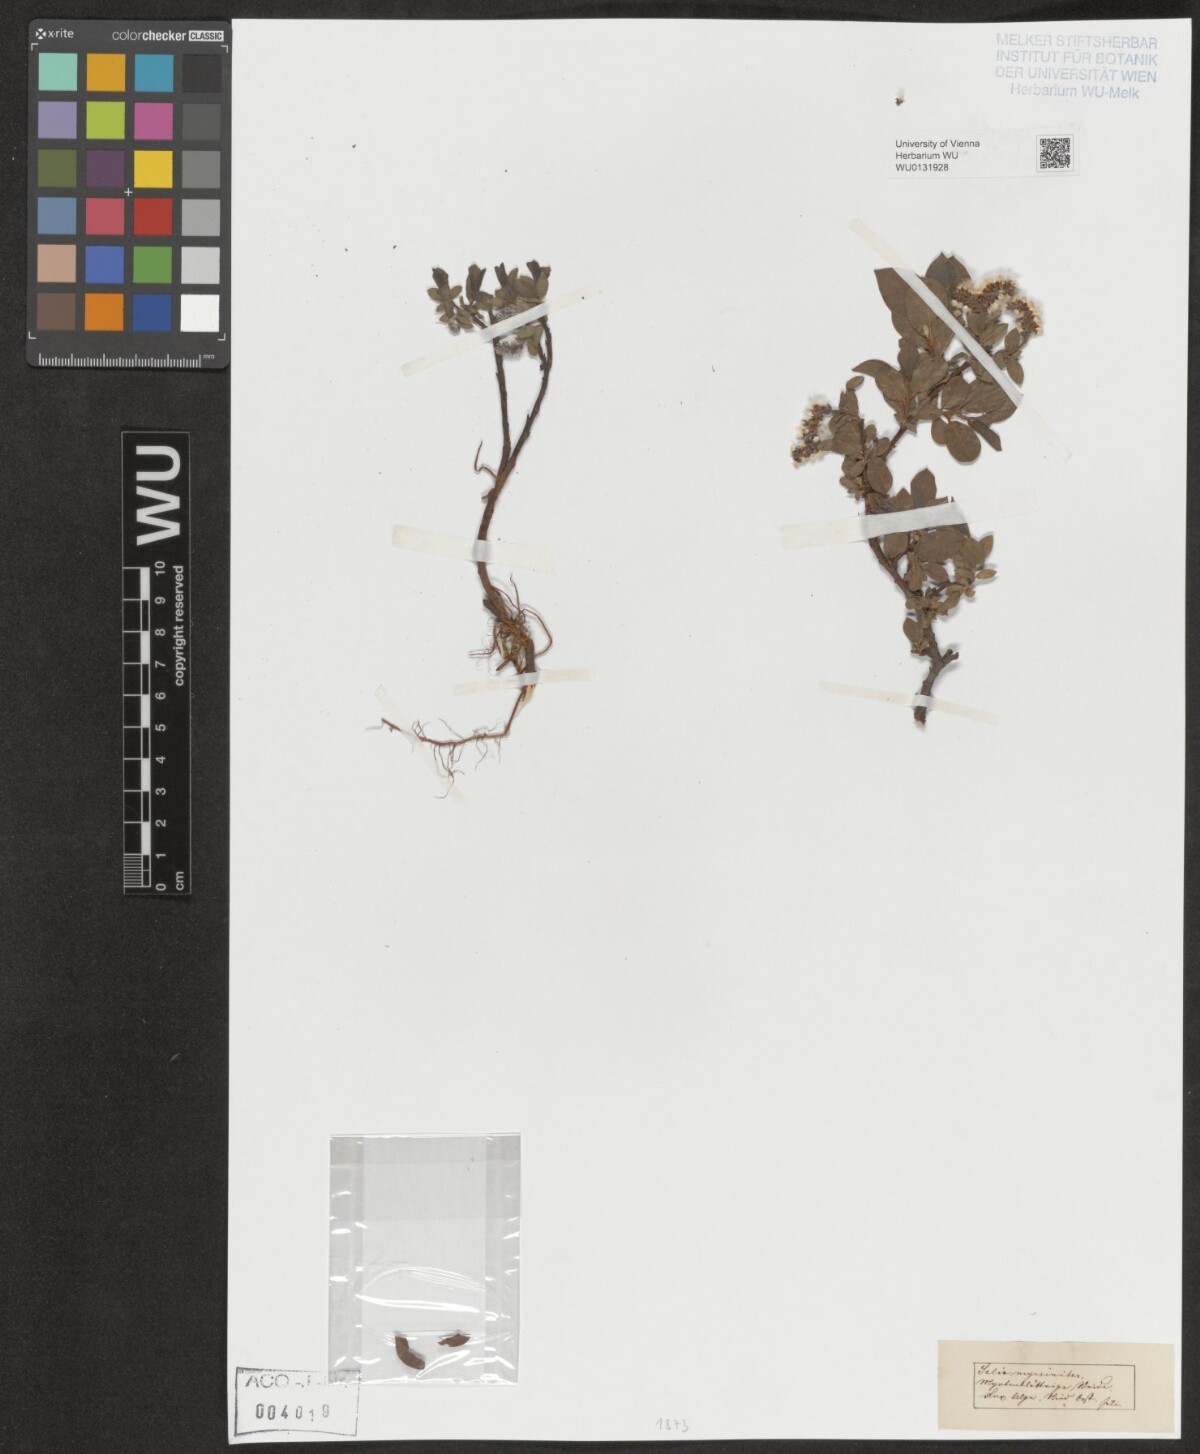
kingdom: Plantae
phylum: Tracheophyta
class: Magnoliopsida
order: Malpighiales
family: Salicaceae
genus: Salix
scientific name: Salix myrsinites
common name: Myrtle willow
